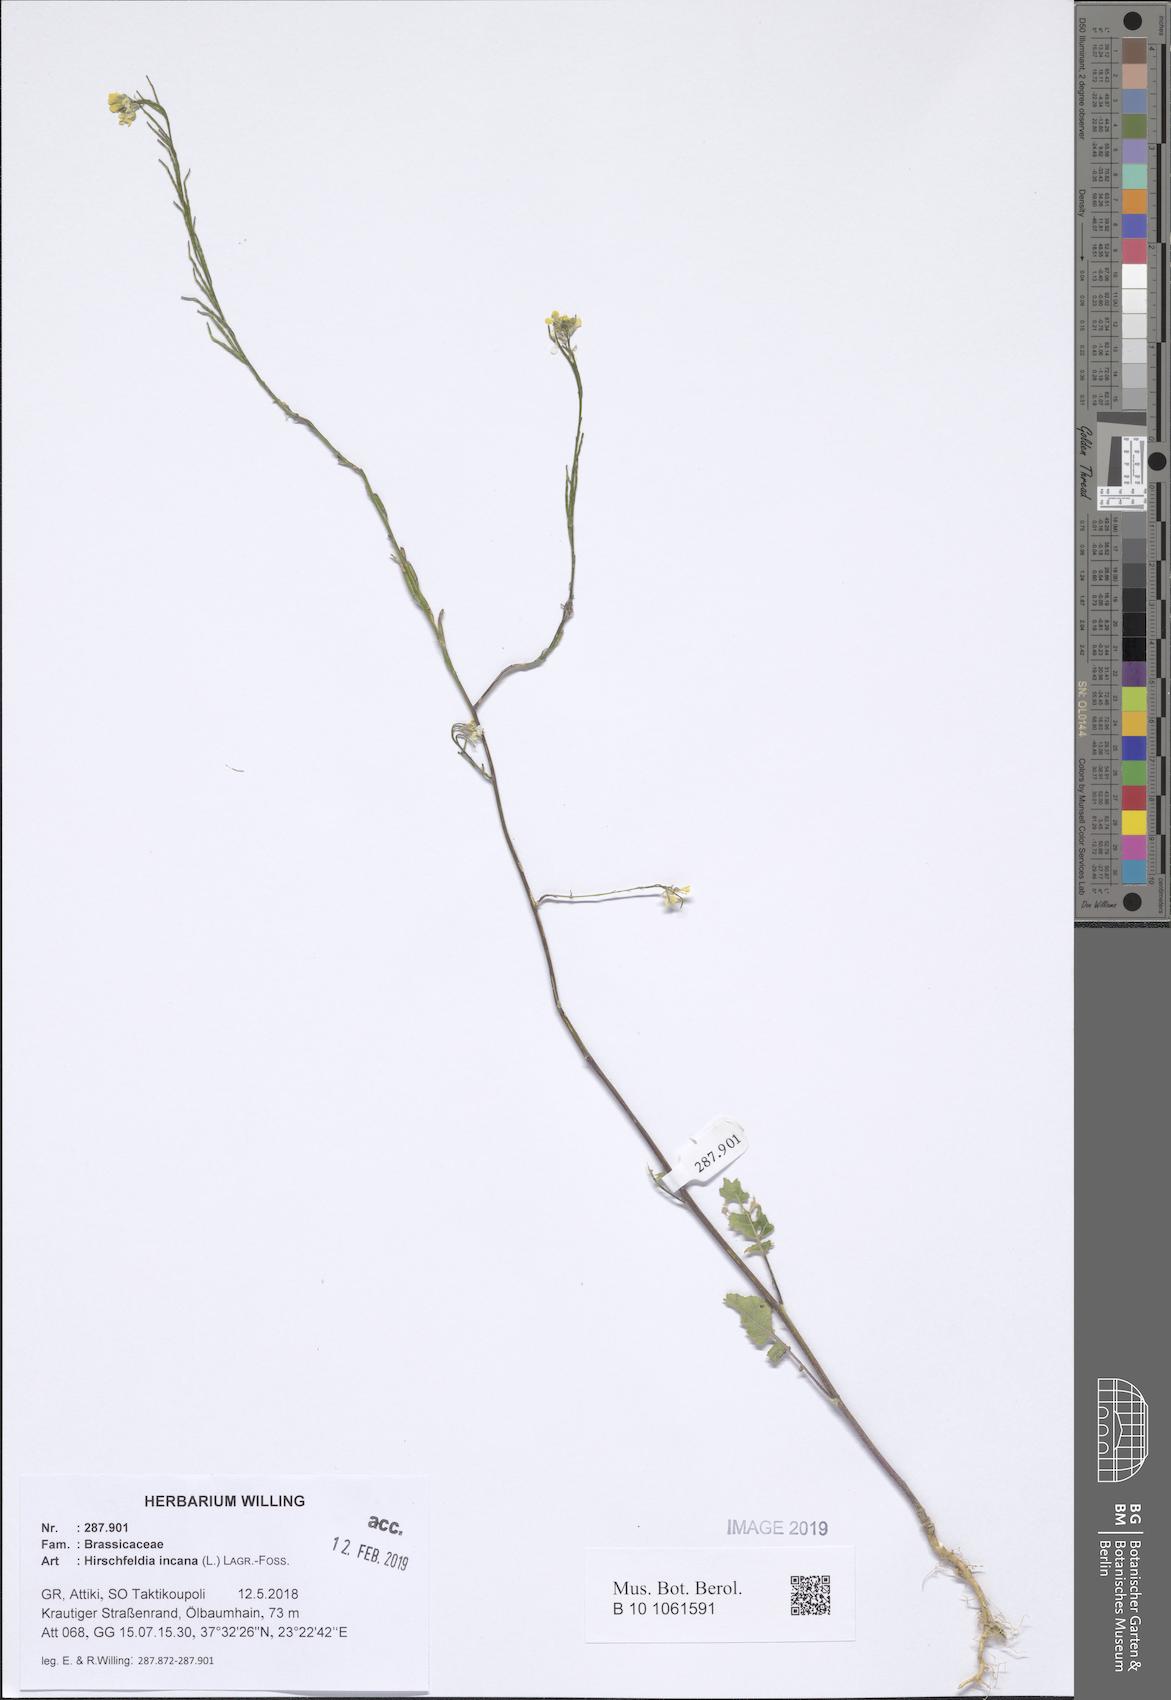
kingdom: Plantae
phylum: Tracheophyta
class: Magnoliopsida
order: Brassicales
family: Brassicaceae
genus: Hirschfeldia
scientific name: Hirschfeldia incana
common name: Hoary mustard
